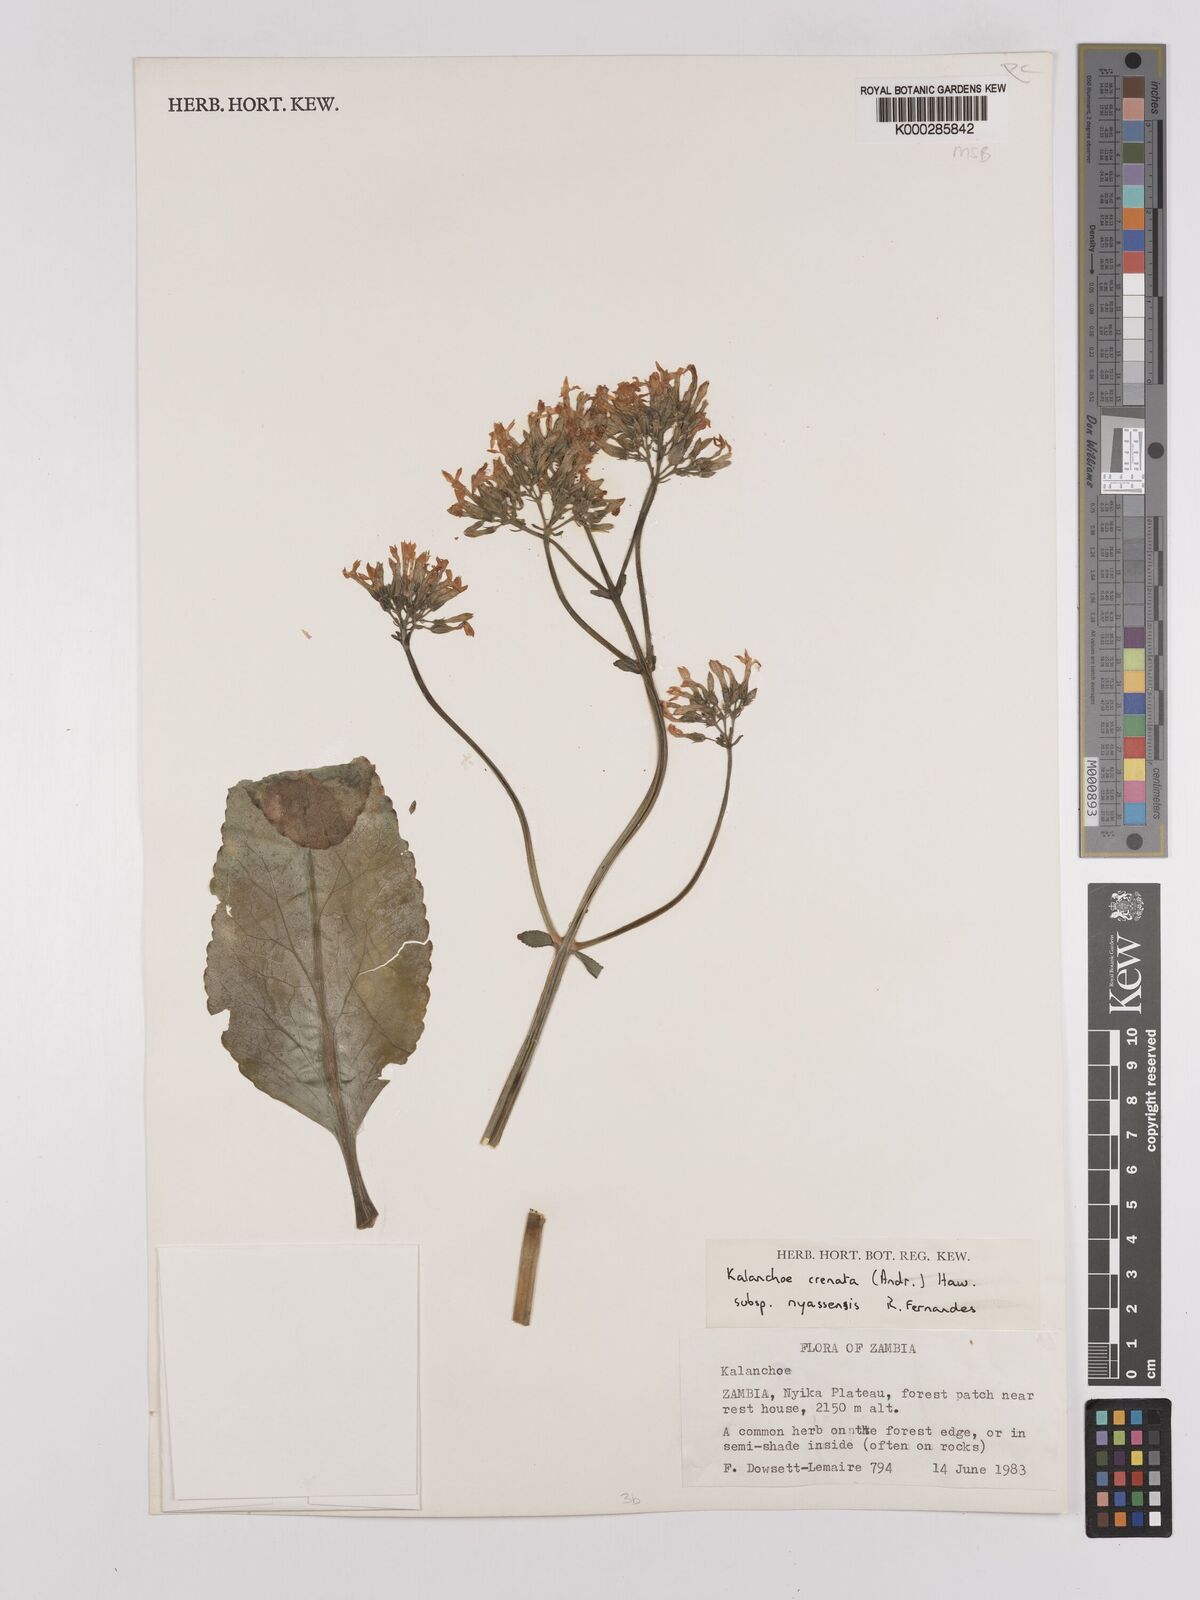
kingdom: Plantae
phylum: Tracheophyta
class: Magnoliopsida
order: Saxifragales
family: Crassulaceae
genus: Kalanchoe
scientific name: Kalanchoe crenata
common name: Neverdie
